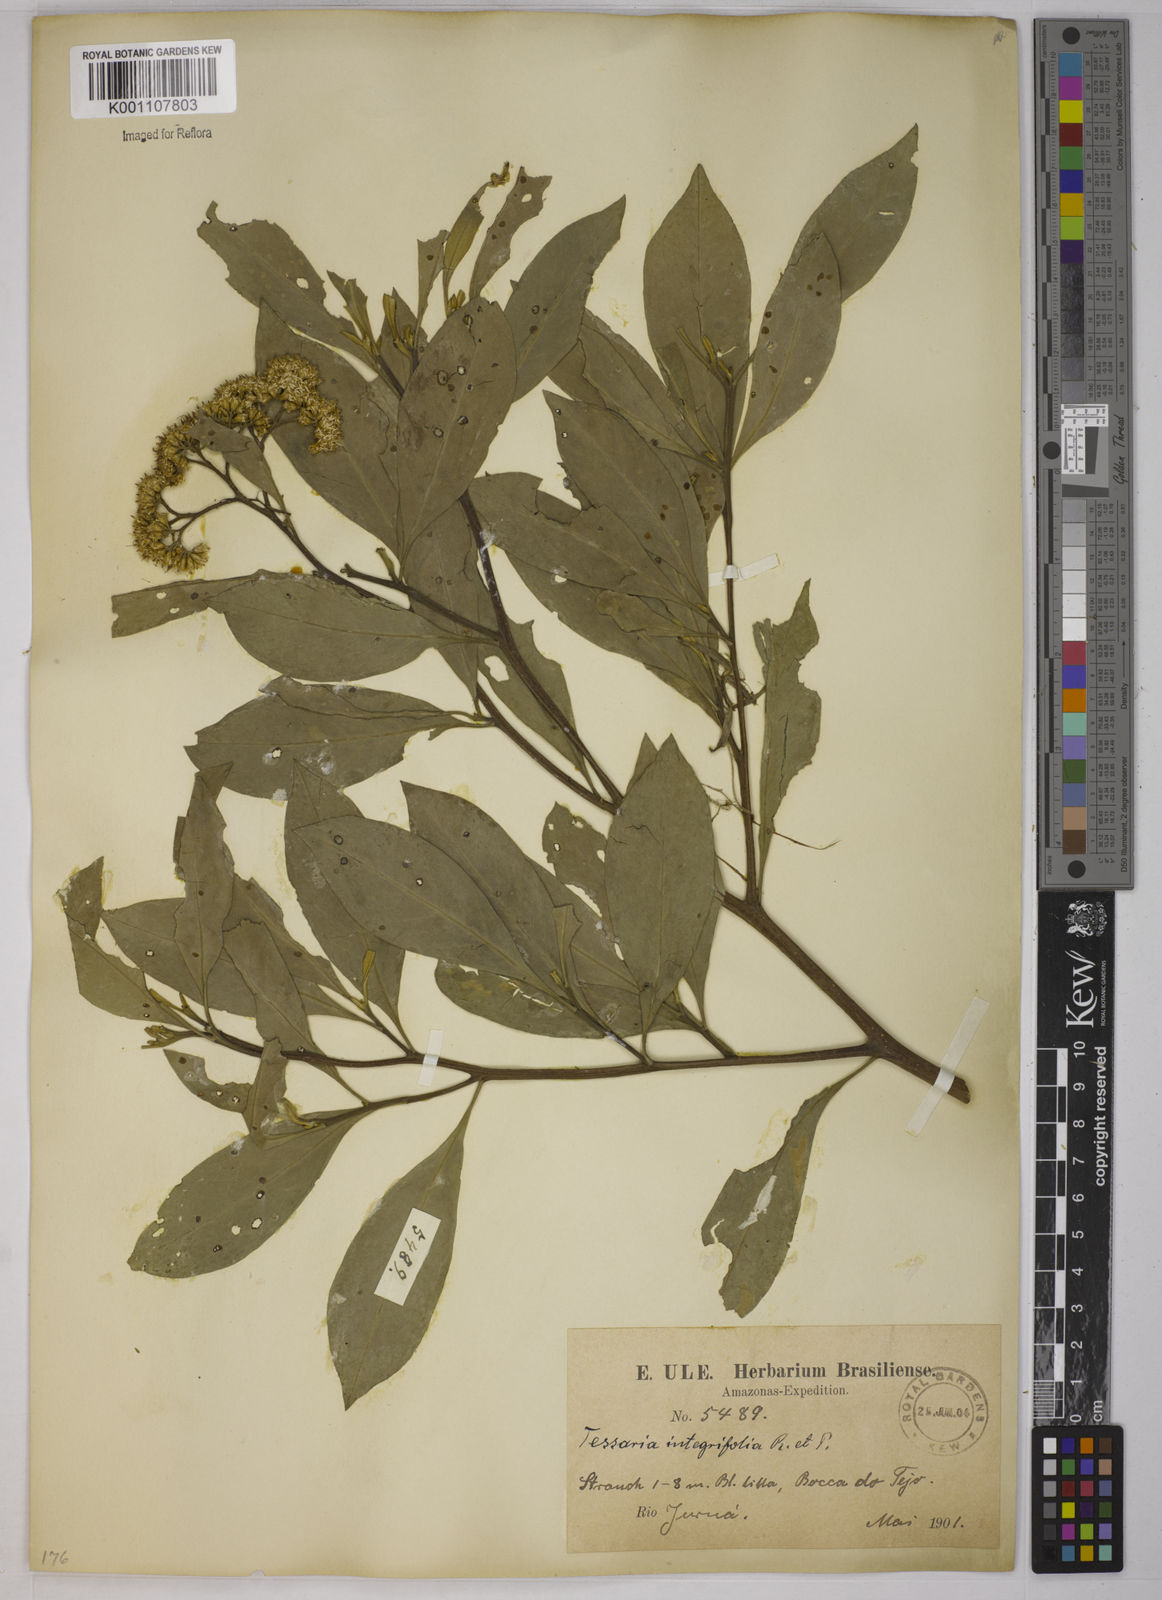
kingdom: Plantae
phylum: Tracheophyta
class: Magnoliopsida
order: Asterales
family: Asteraceae
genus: Tessaria
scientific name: Tessaria integrifolia
